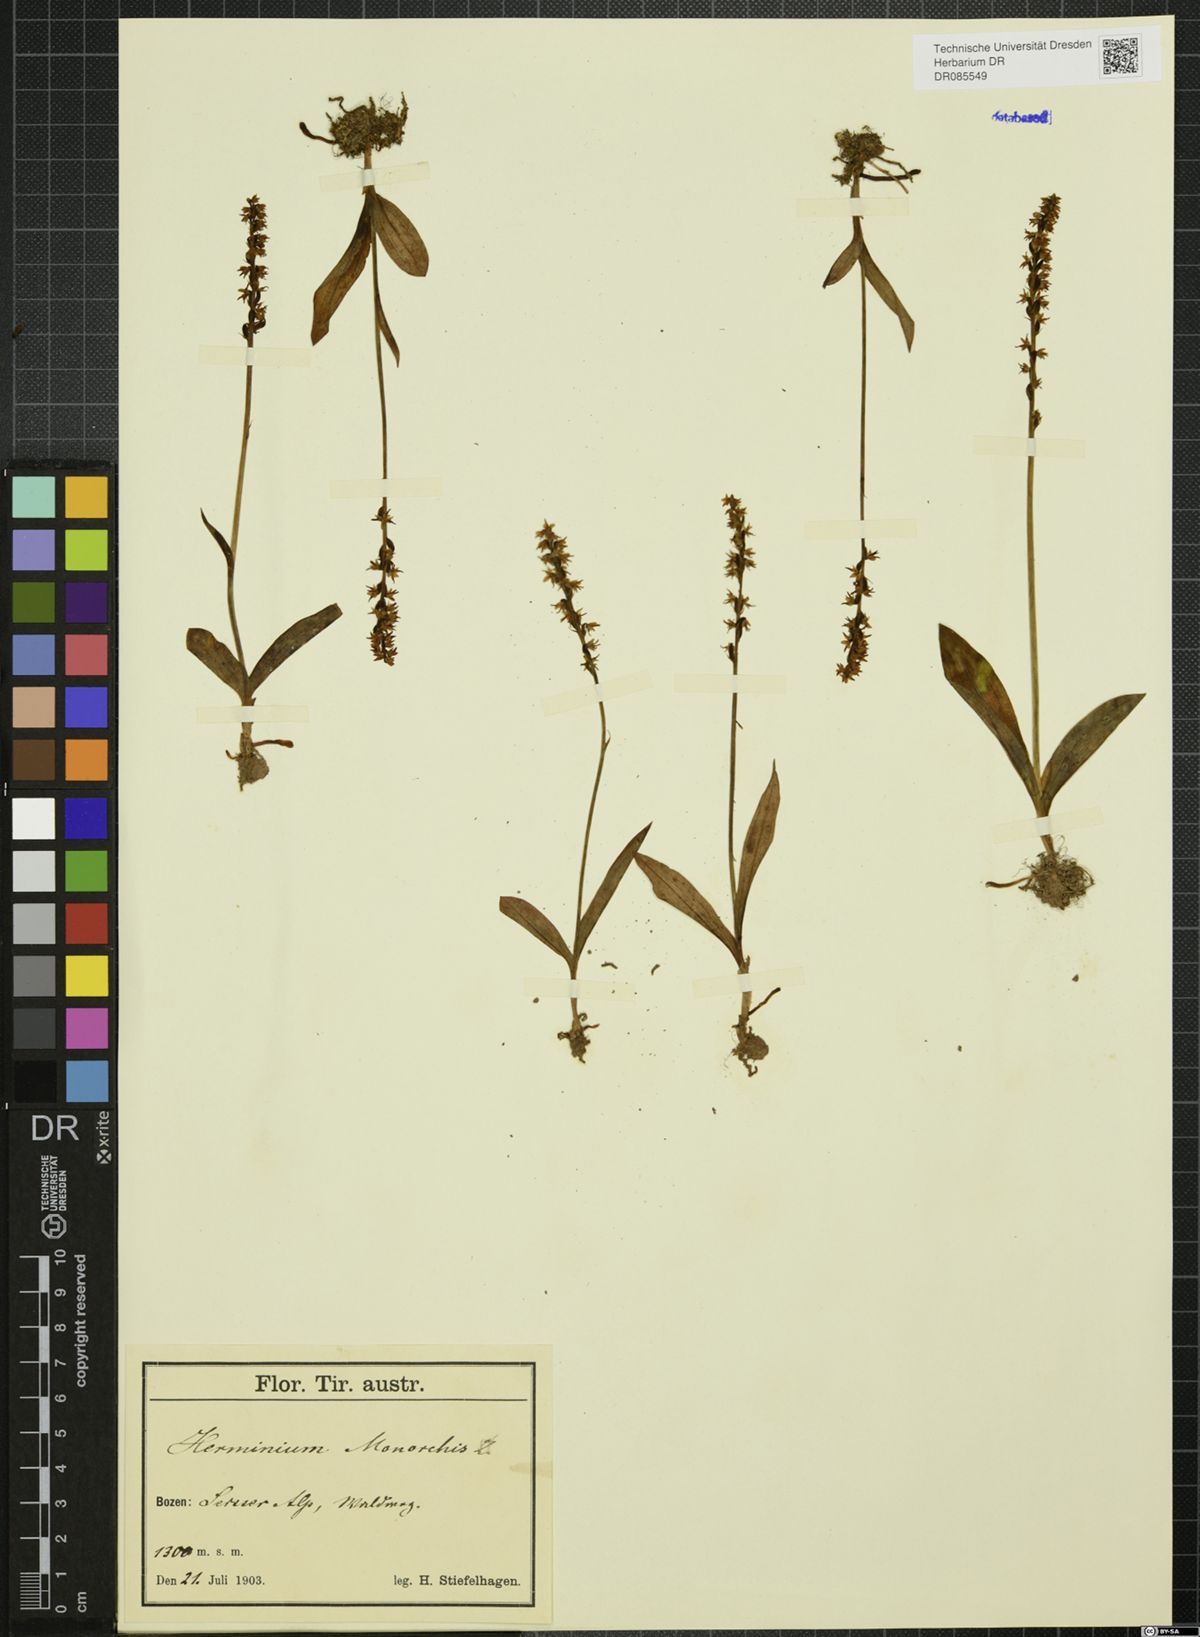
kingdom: Plantae
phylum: Tracheophyta
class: Liliopsida
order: Asparagales
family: Orchidaceae
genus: Herminium
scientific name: Herminium monorchis
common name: Musk orchid
